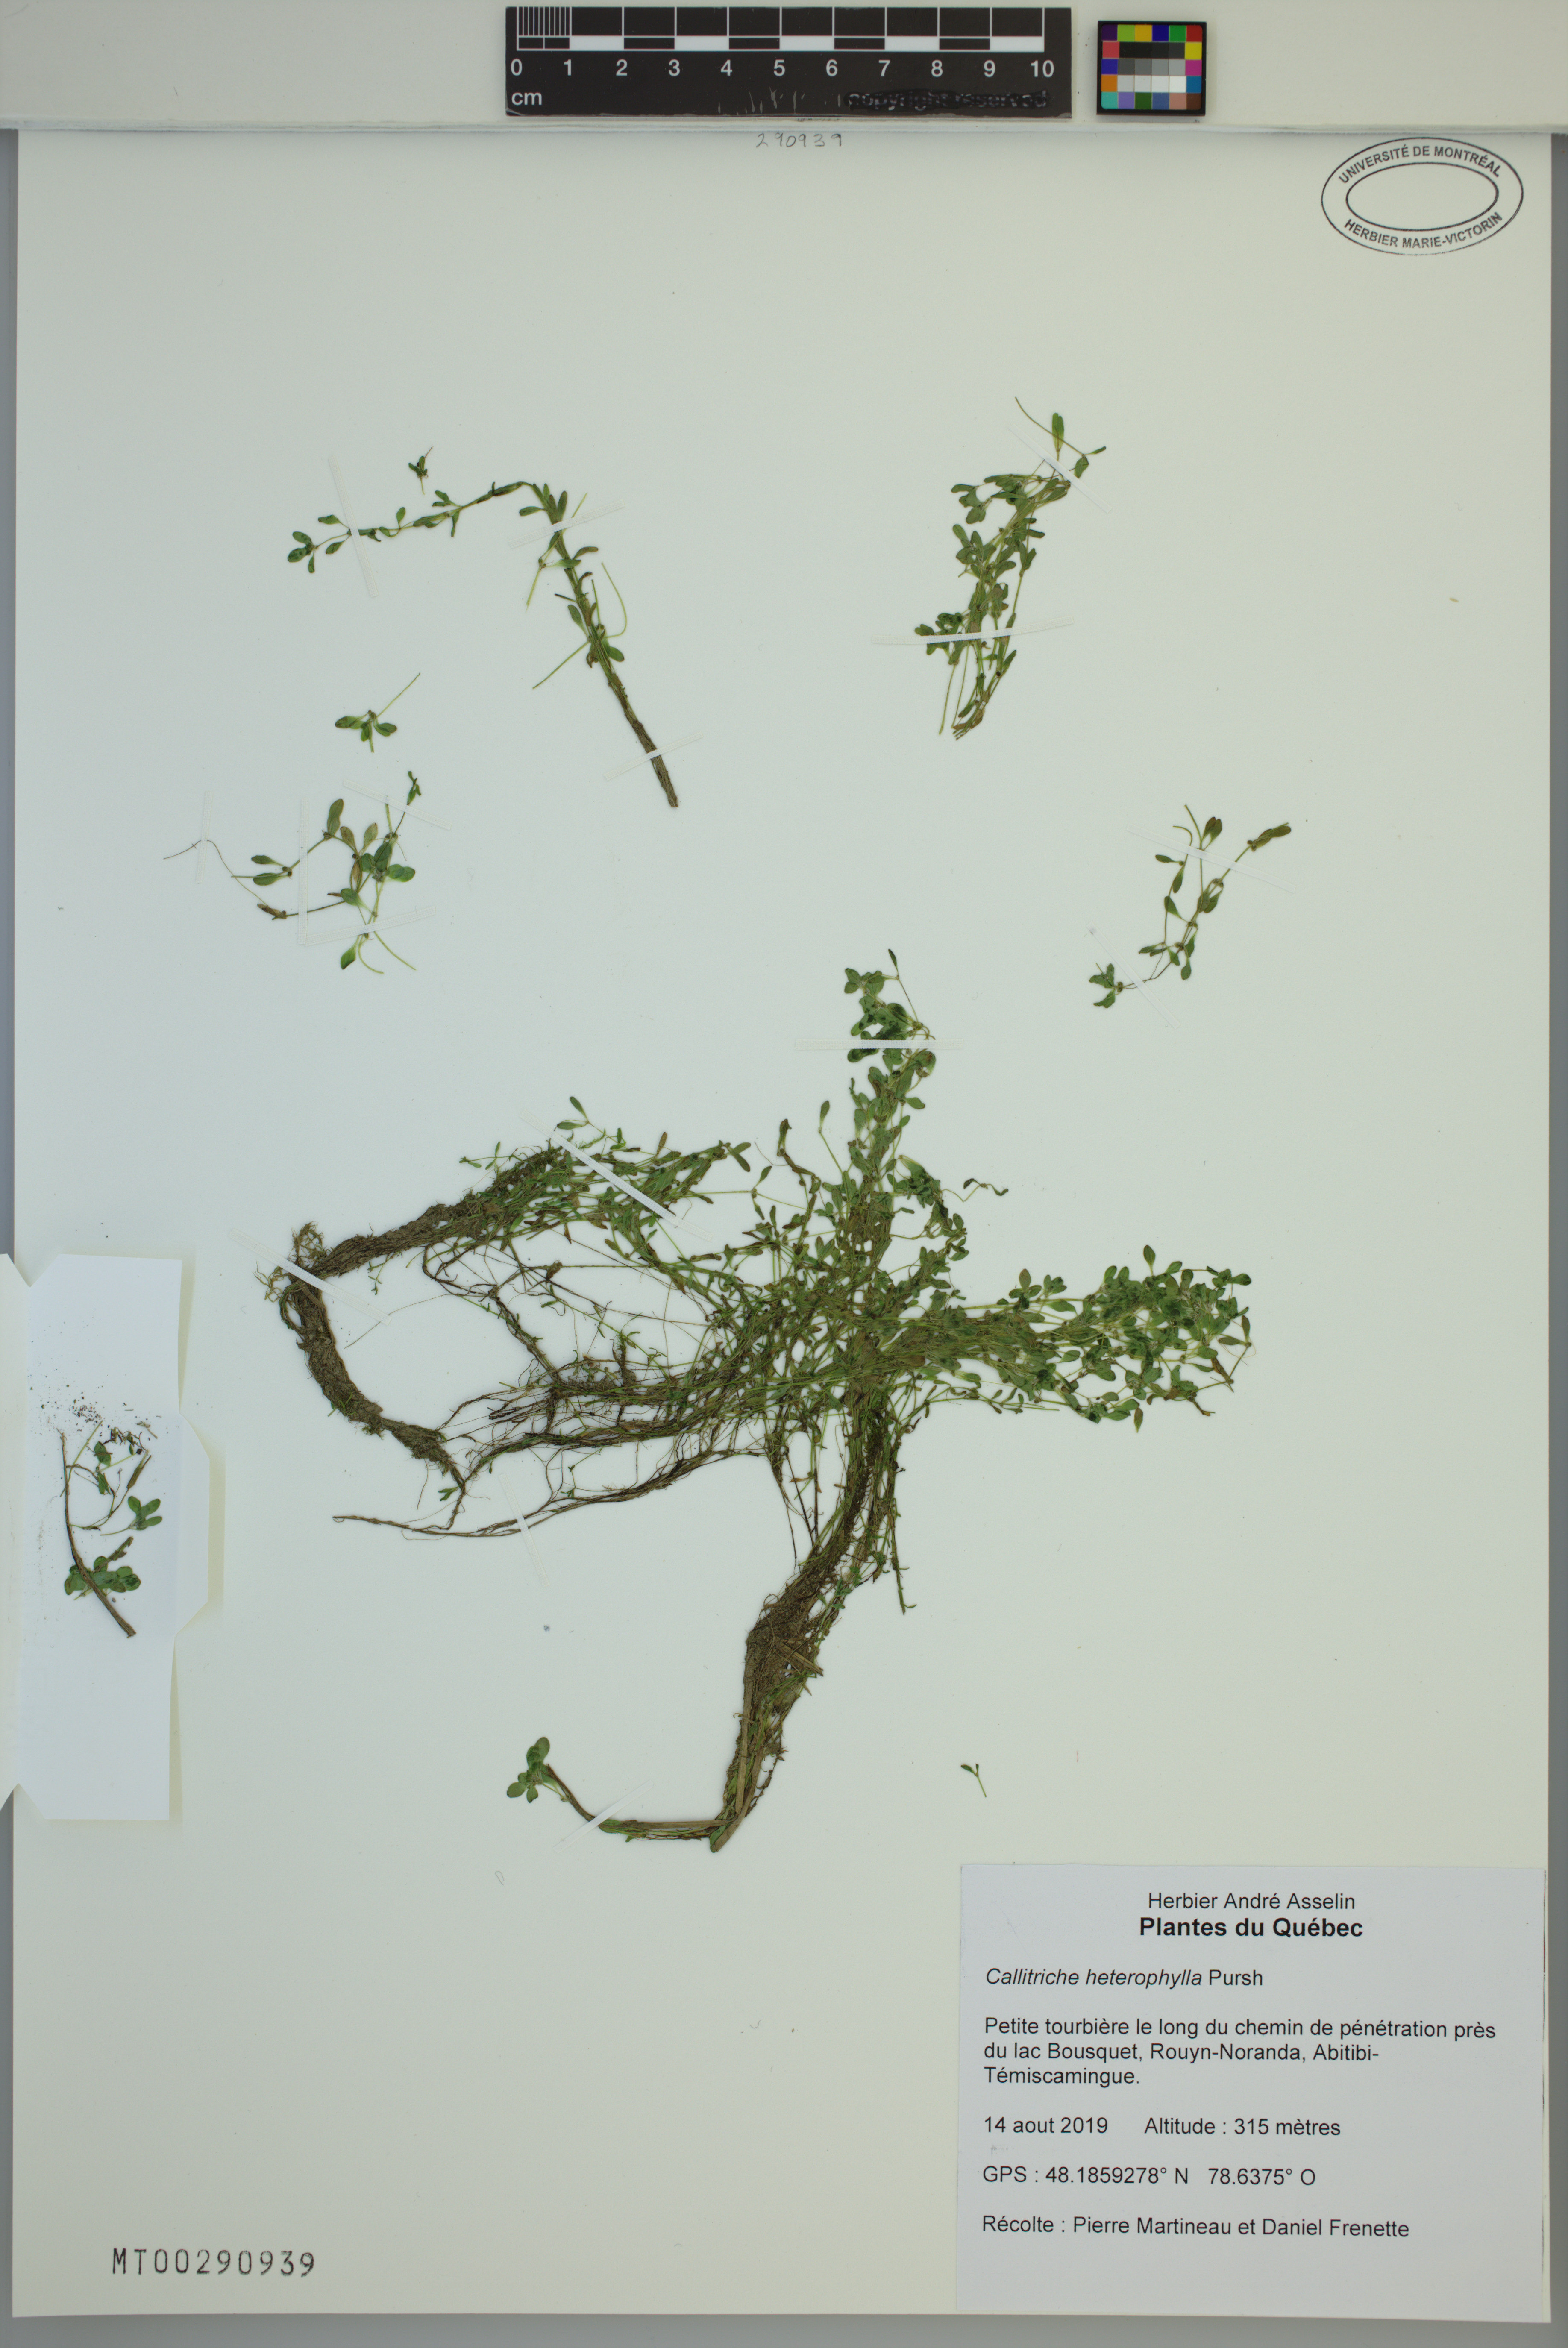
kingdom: Plantae
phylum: Tracheophyta
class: Magnoliopsida
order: Lamiales
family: Plantaginaceae
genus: Callitriche
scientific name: Callitriche heterophylla
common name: Two-headed water-starwort
